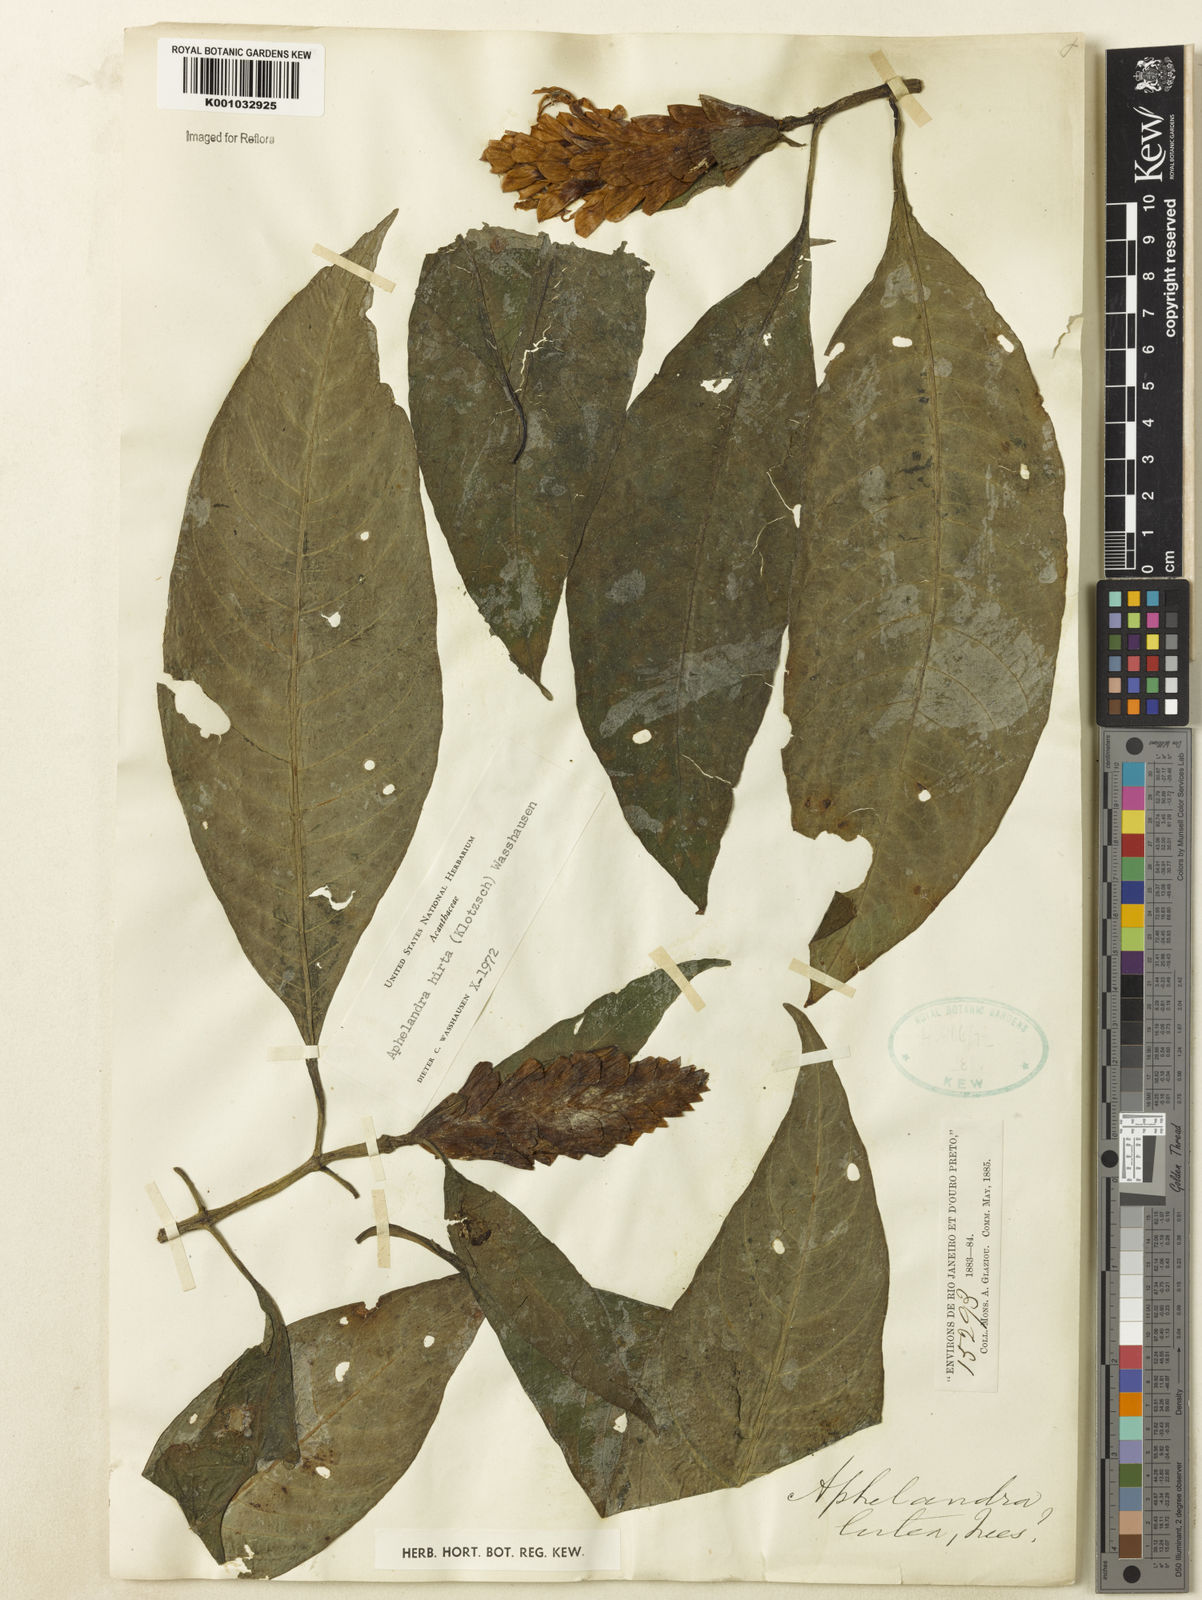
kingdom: Plantae
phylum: Tracheophyta
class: Magnoliopsida
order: Lamiales
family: Acanthaceae
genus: Aphelandra
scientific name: Aphelandra hirta
